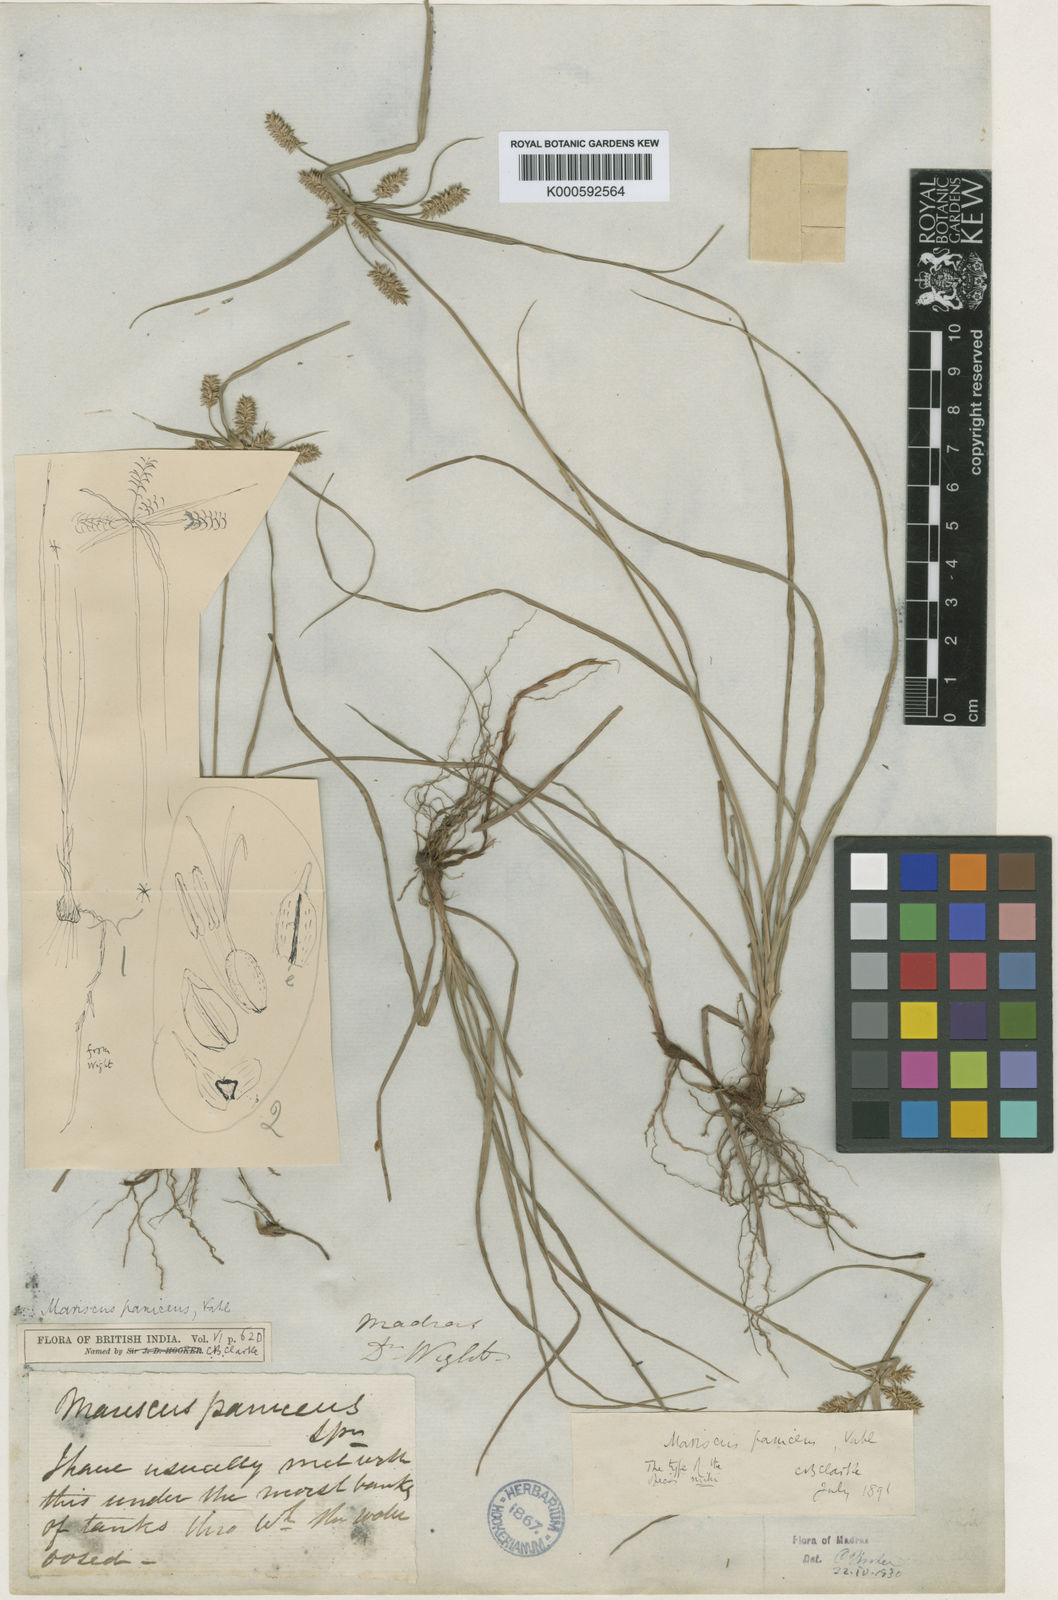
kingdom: Plantae
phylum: Tracheophyta
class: Liliopsida
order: Poales
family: Cyperaceae
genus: Cyperus
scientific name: Cyperus paniceus
